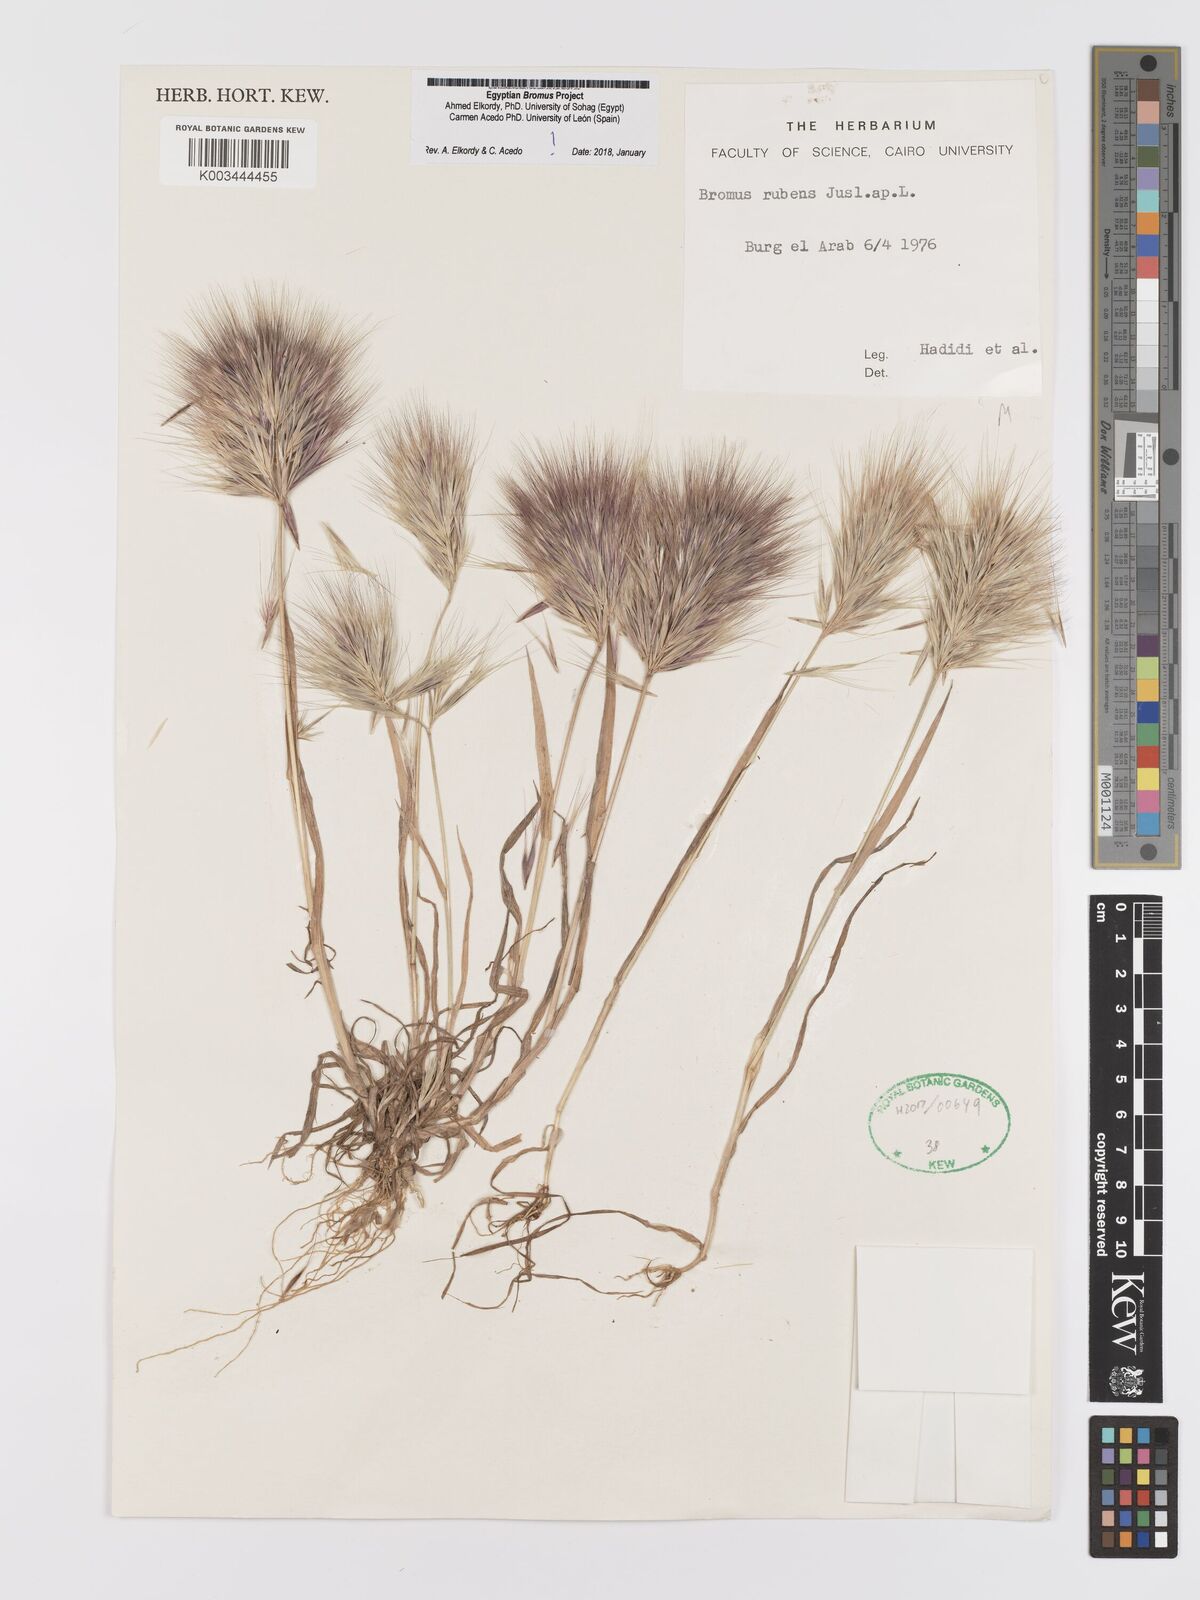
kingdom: Plantae
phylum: Tracheophyta
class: Liliopsida
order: Poales
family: Poaceae
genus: Bromus
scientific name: Bromus rubens
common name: Red brome
